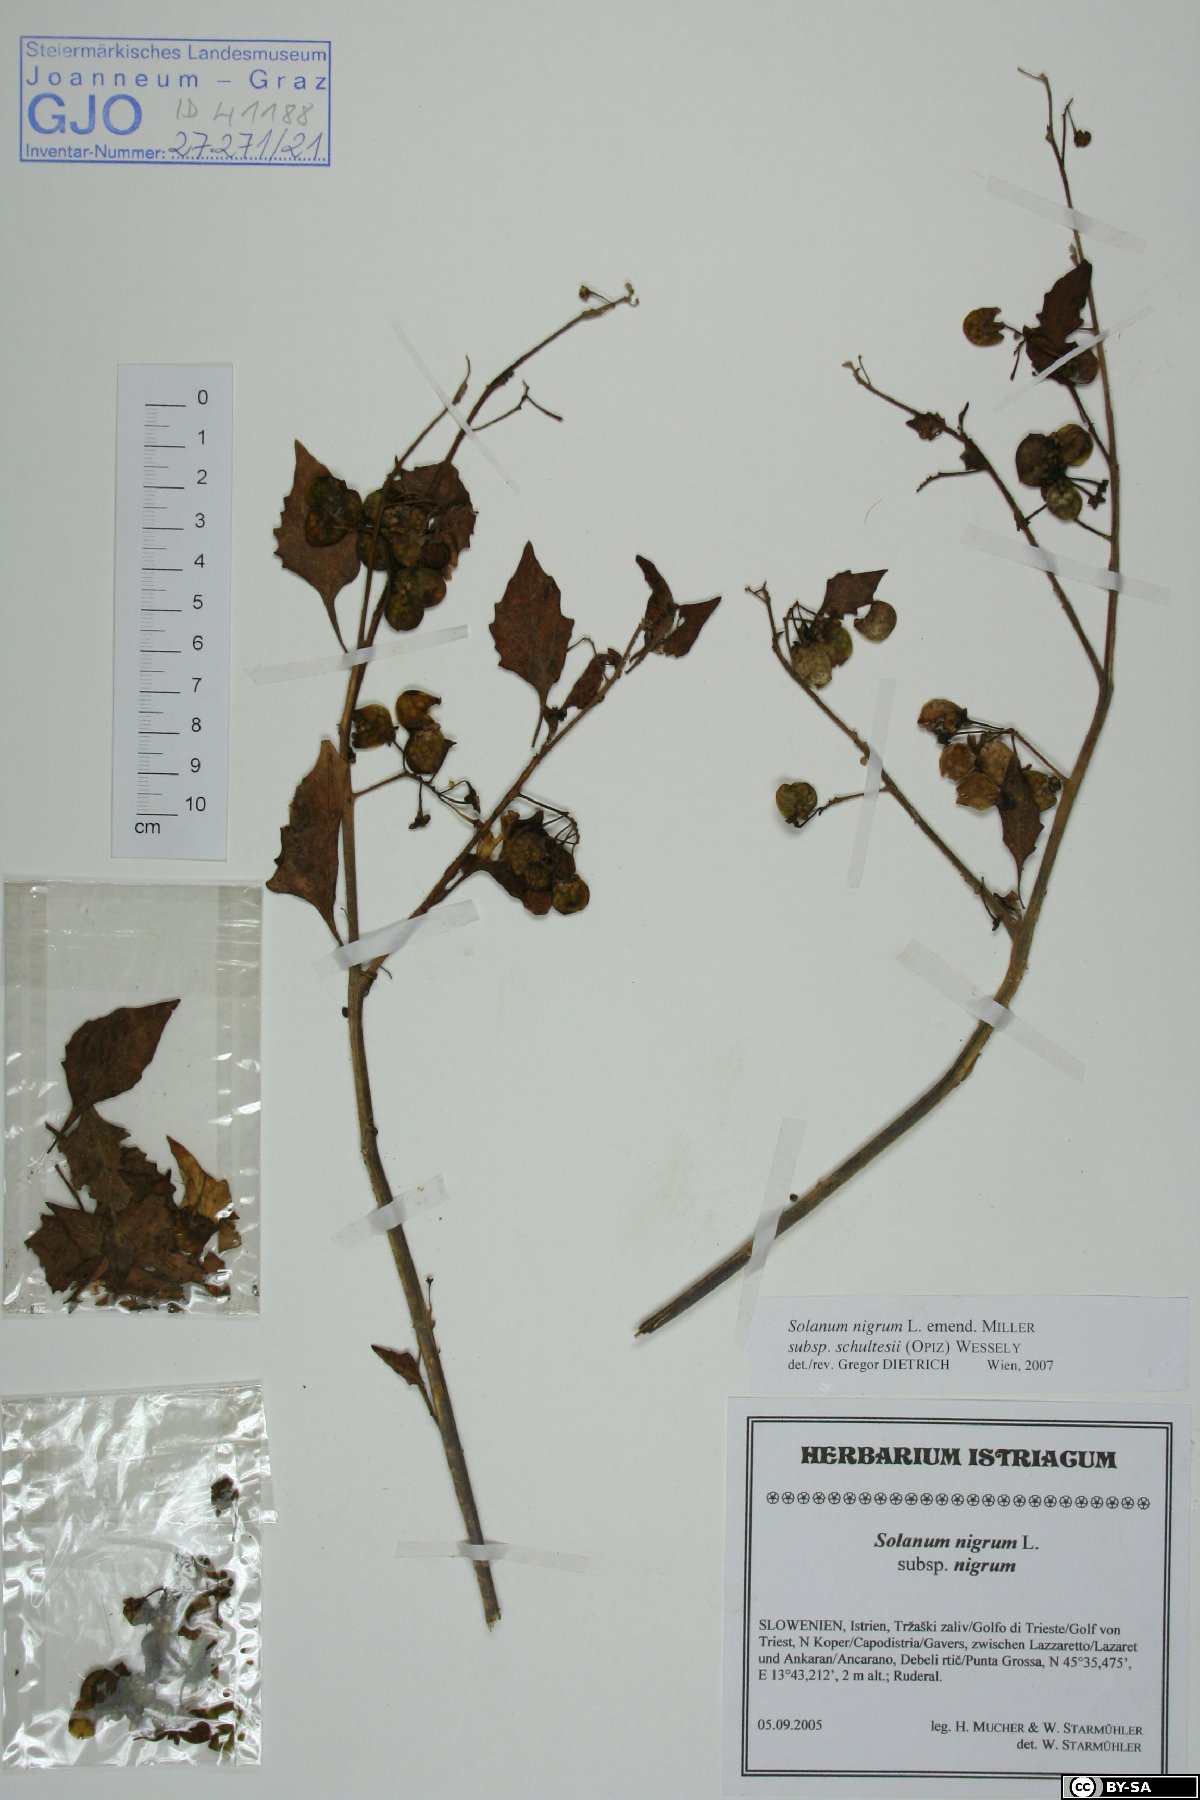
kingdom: Plantae
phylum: Tracheophyta
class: Magnoliopsida
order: Solanales
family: Solanaceae
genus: Solanum
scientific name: Solanum decipiens
